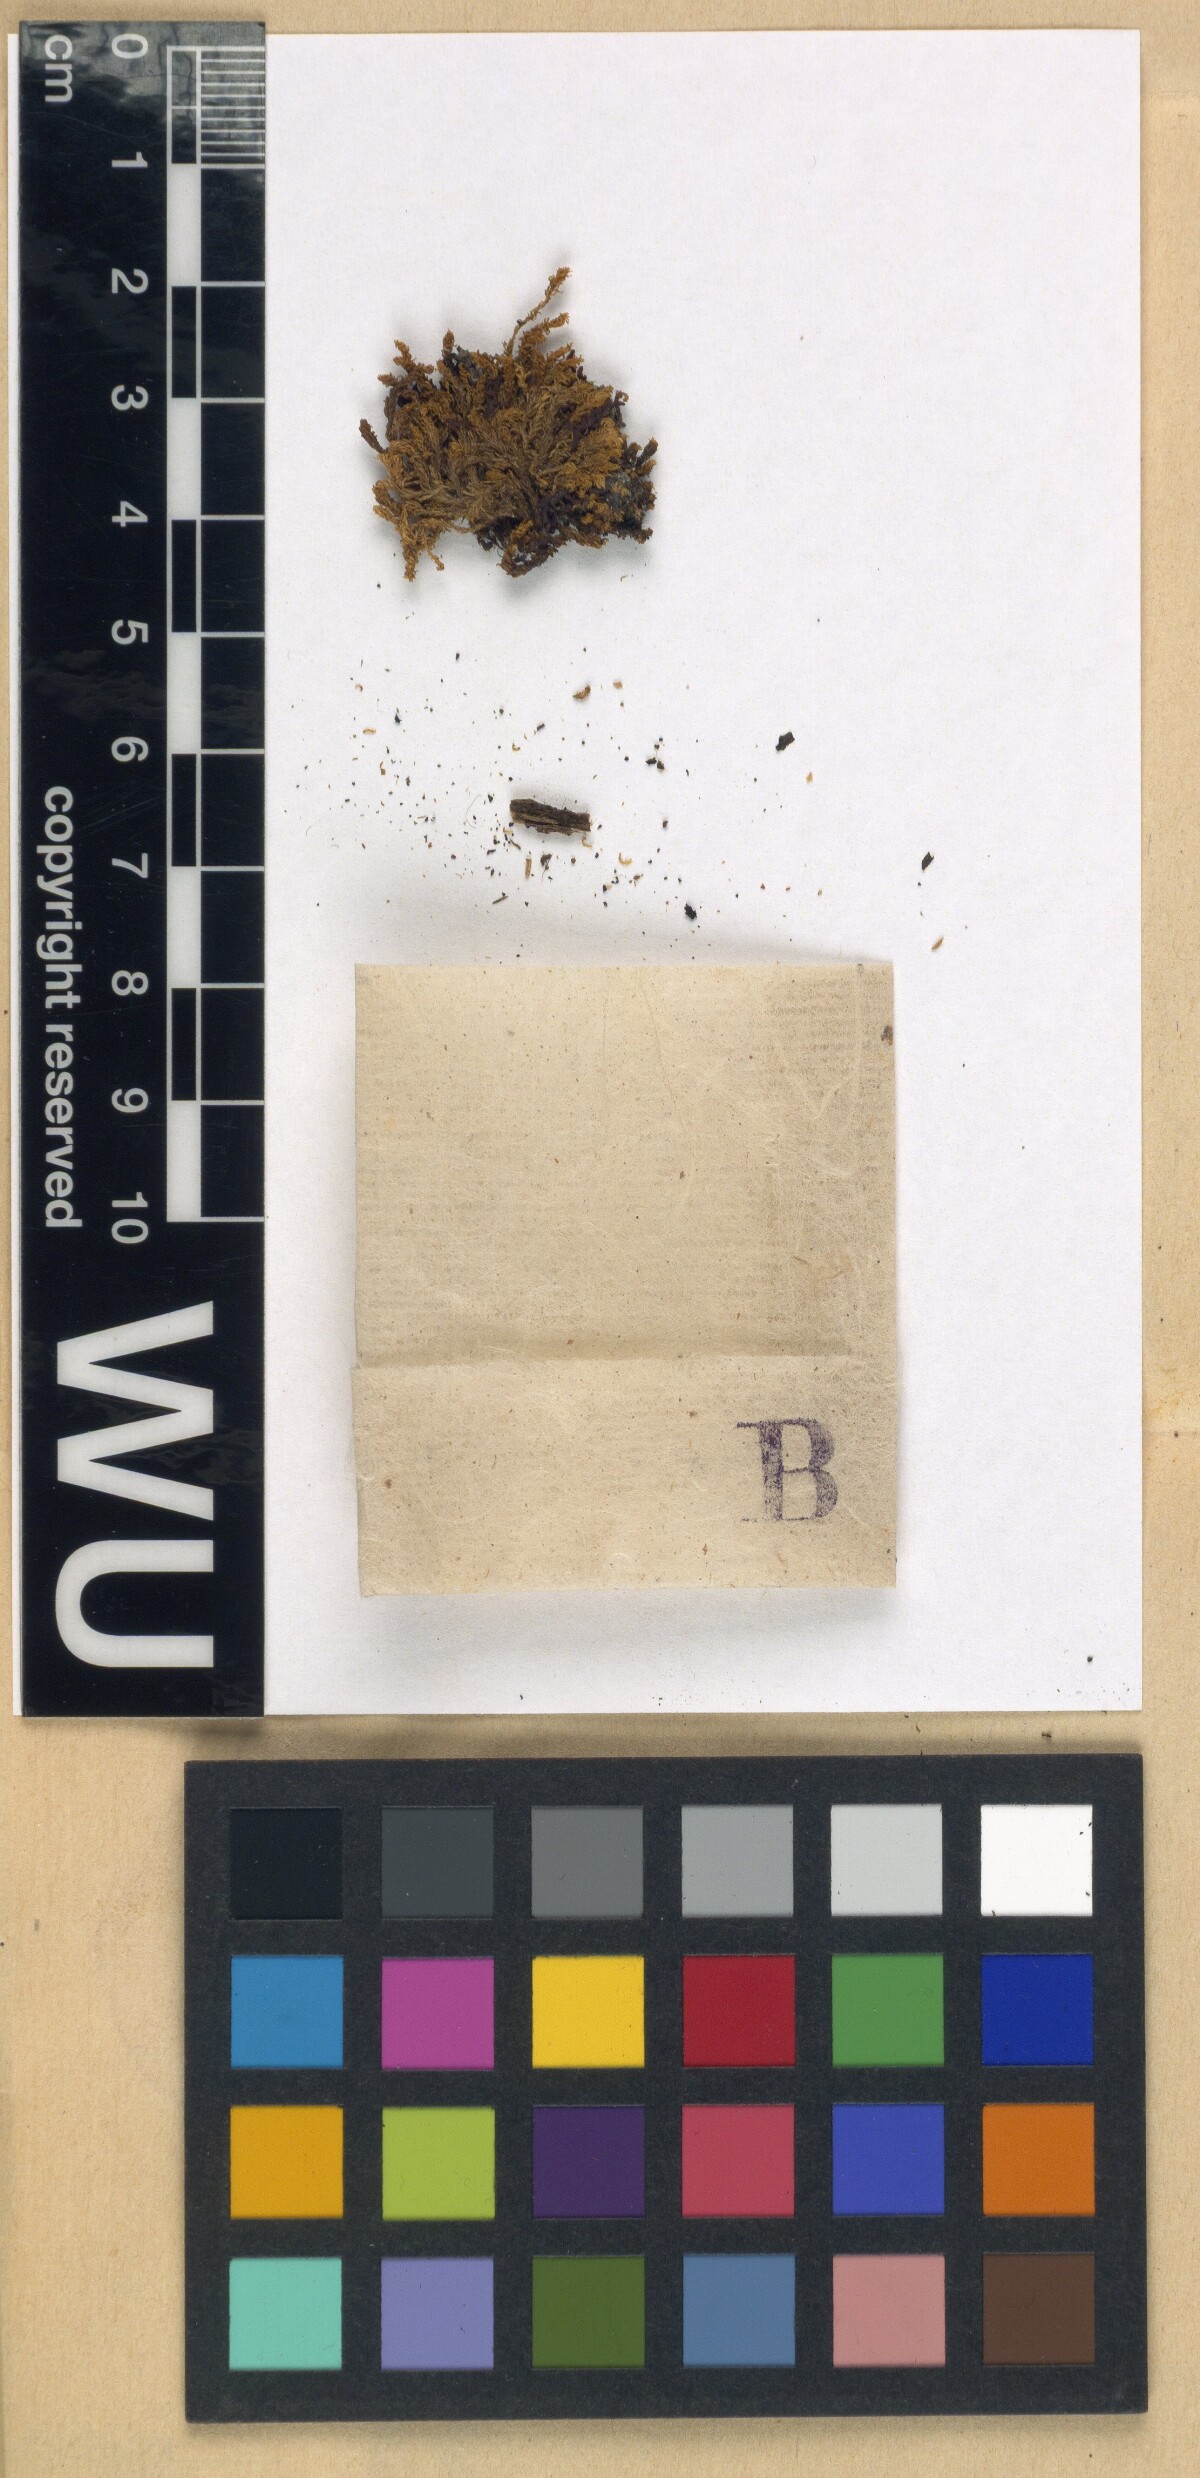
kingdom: Plantae
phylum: Bryophyta
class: Bryopsida
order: Pottiales
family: Pottiaceae
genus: Leptodontium
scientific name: Leptodontium flexifolium
